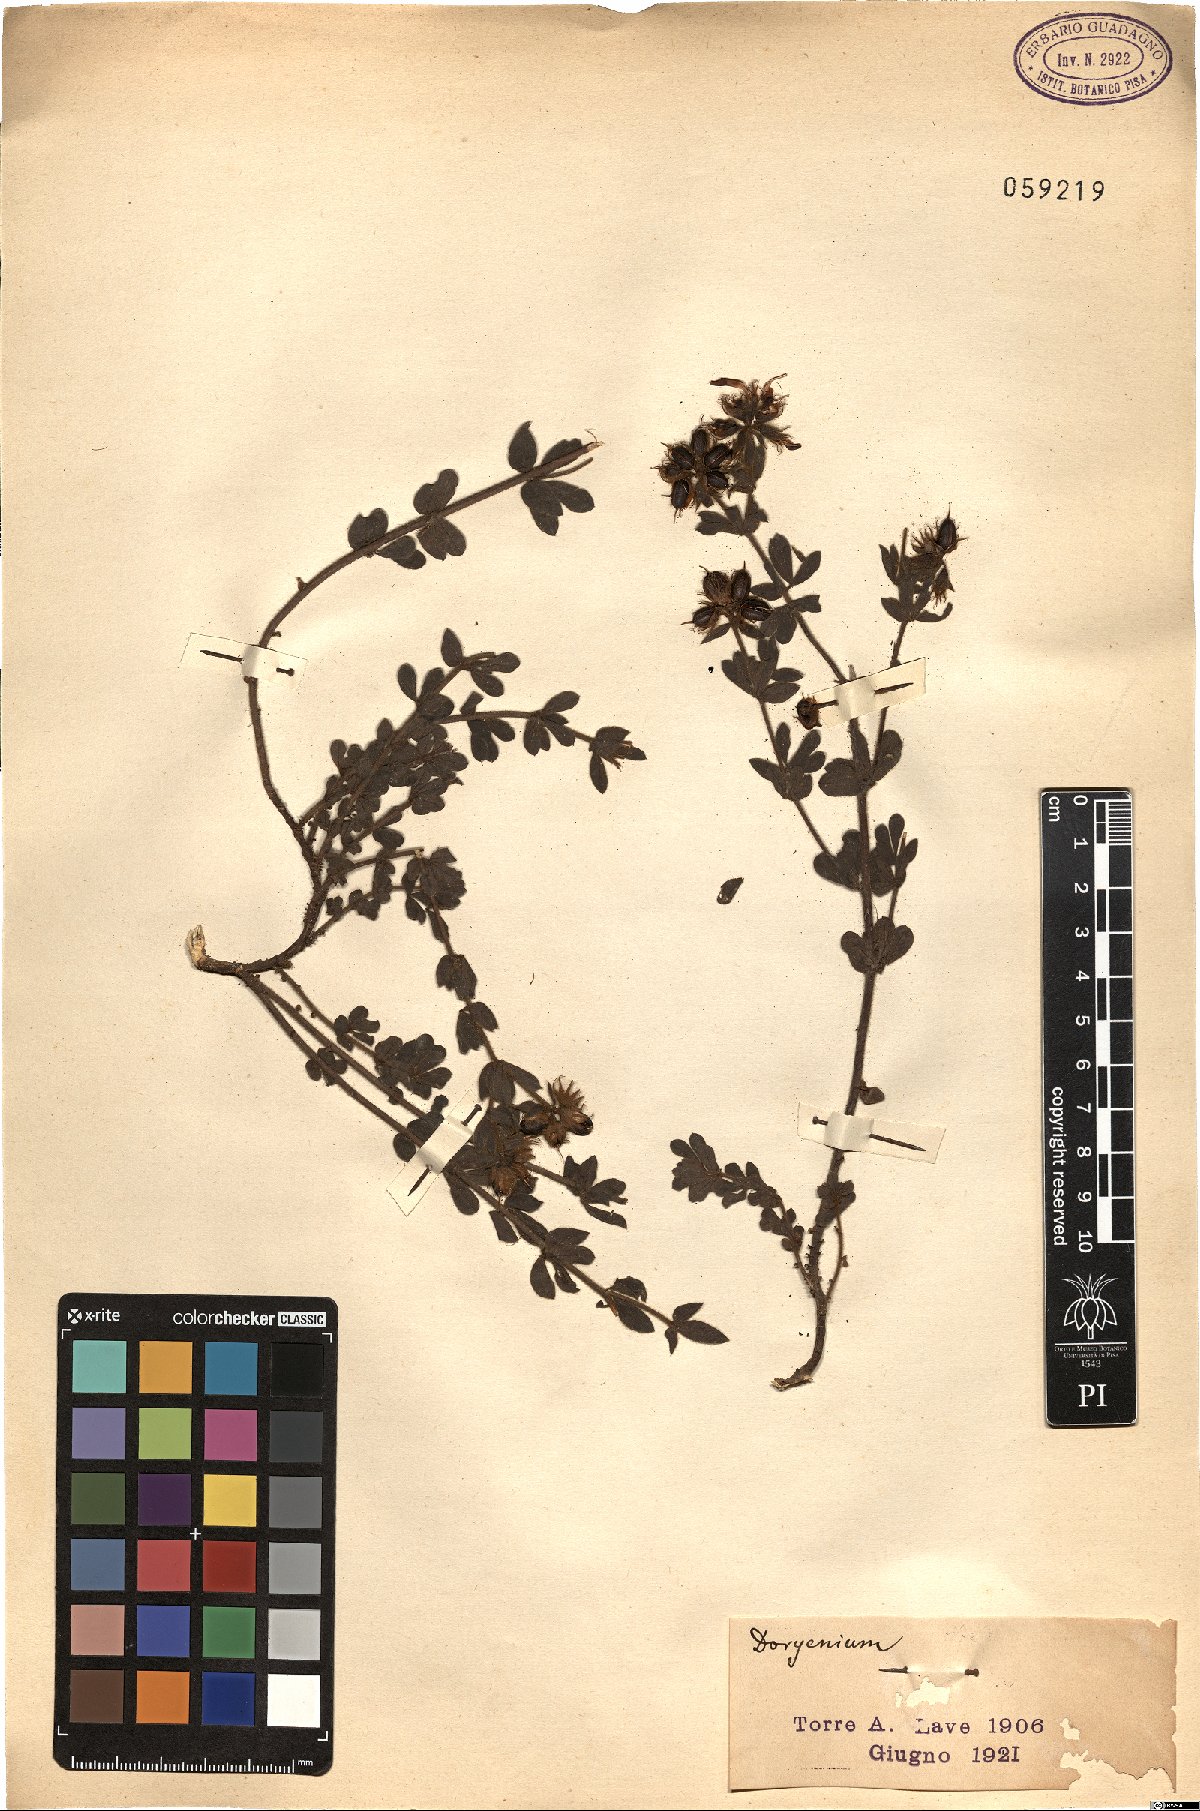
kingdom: Plantae
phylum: Tracheophyta
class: Magnoliopsida
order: Fabales
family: Fabaceae
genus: Lotus
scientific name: Lotus
